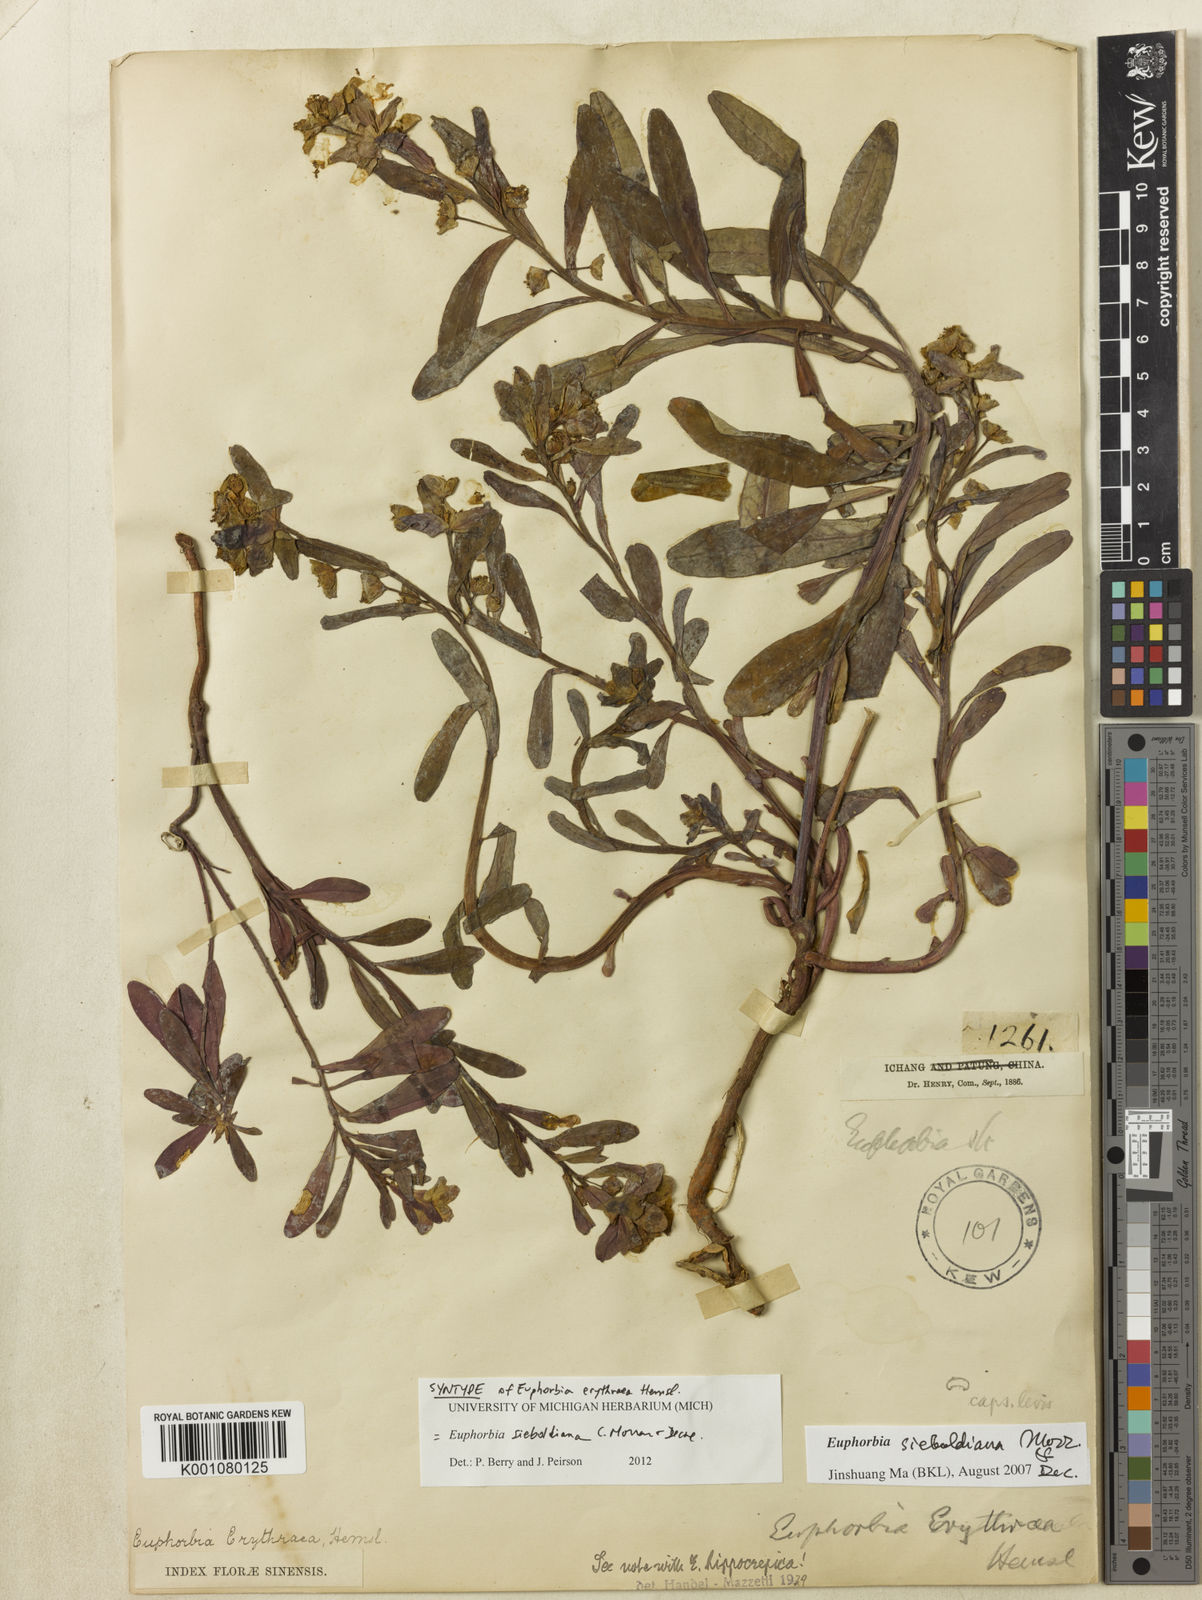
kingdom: Plantae
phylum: Tracheophyta
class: Magnoliopsida
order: Malpighiales
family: Euphorbiaceae
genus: Euphorbia
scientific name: Euphorbia sieboldiana
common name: Siebold's spurge
